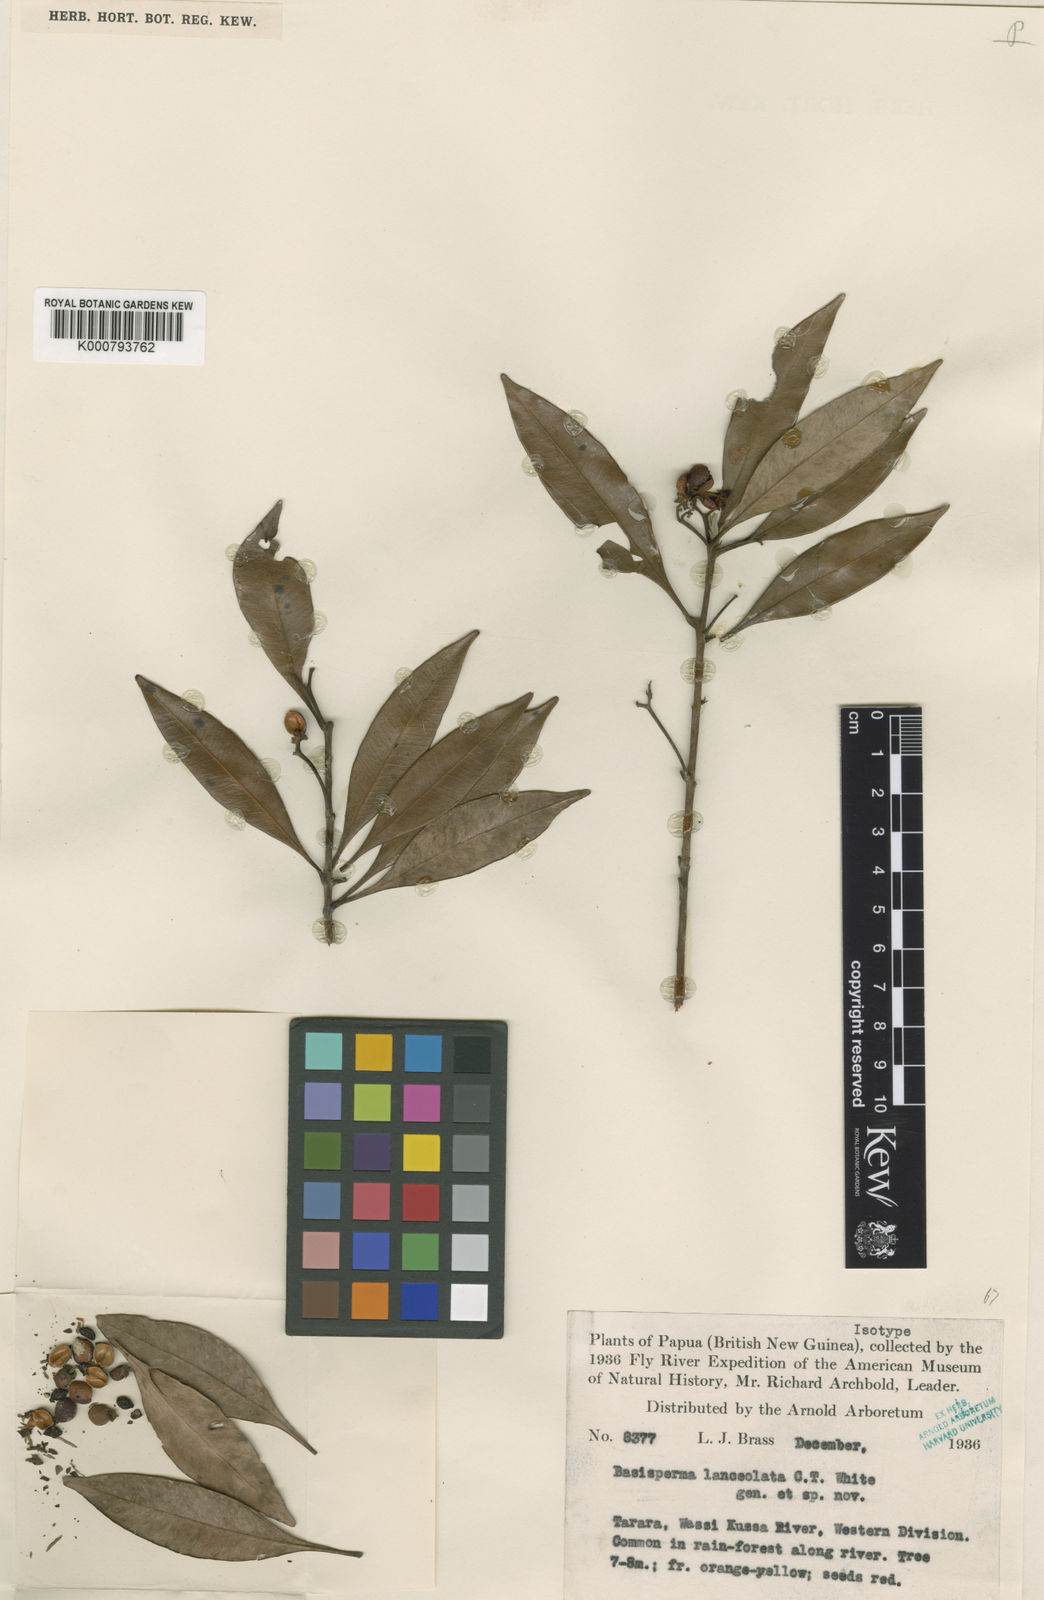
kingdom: Plantae
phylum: Tracheophyta
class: Magnoliopsida
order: Myrtales
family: Myrtaceae
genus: Basisperma
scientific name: Basisperma lanceolata
